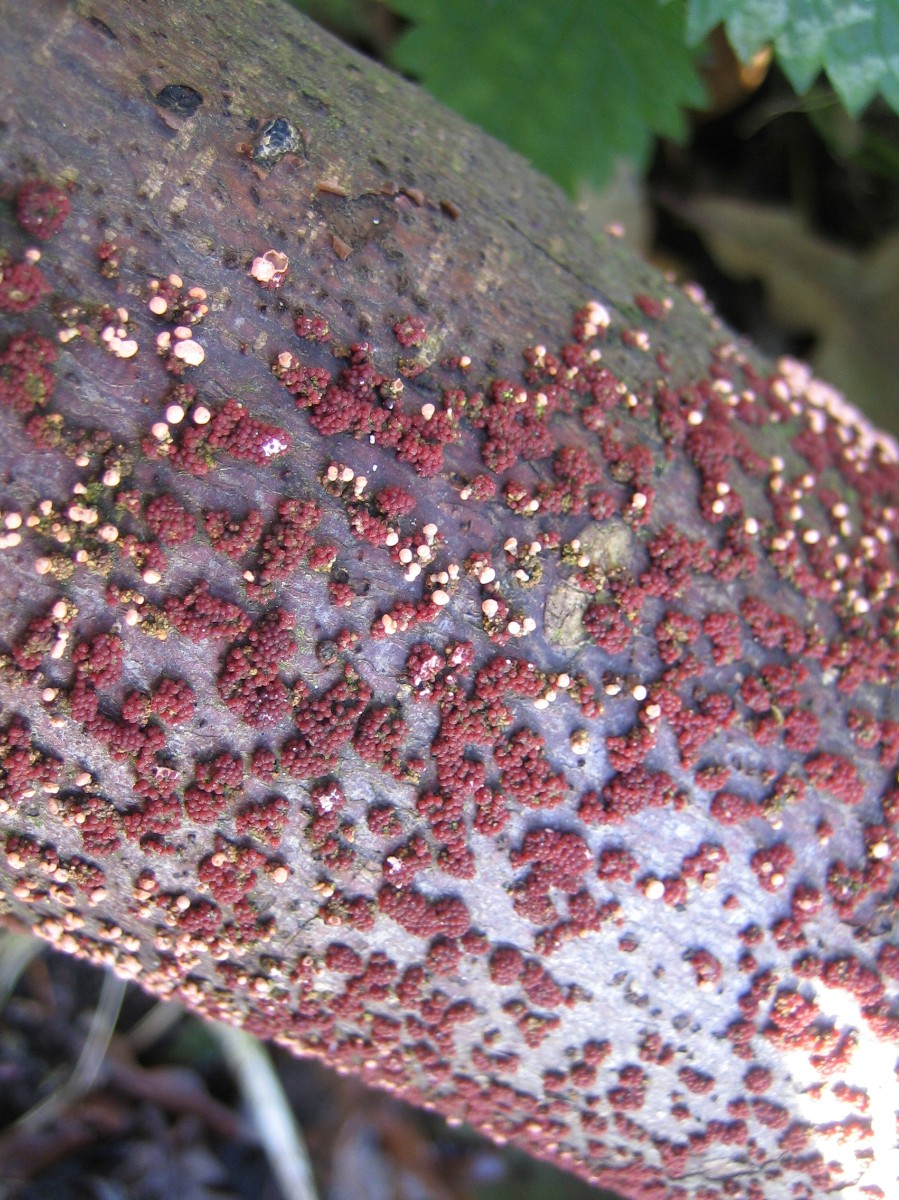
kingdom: Fungi
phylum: Ascomycota
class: Sordariomycetes
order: Hypocreales
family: Nectriaceae
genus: Nectria
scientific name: Nectria cinnabarina
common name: almindelig cinnobersvamp
